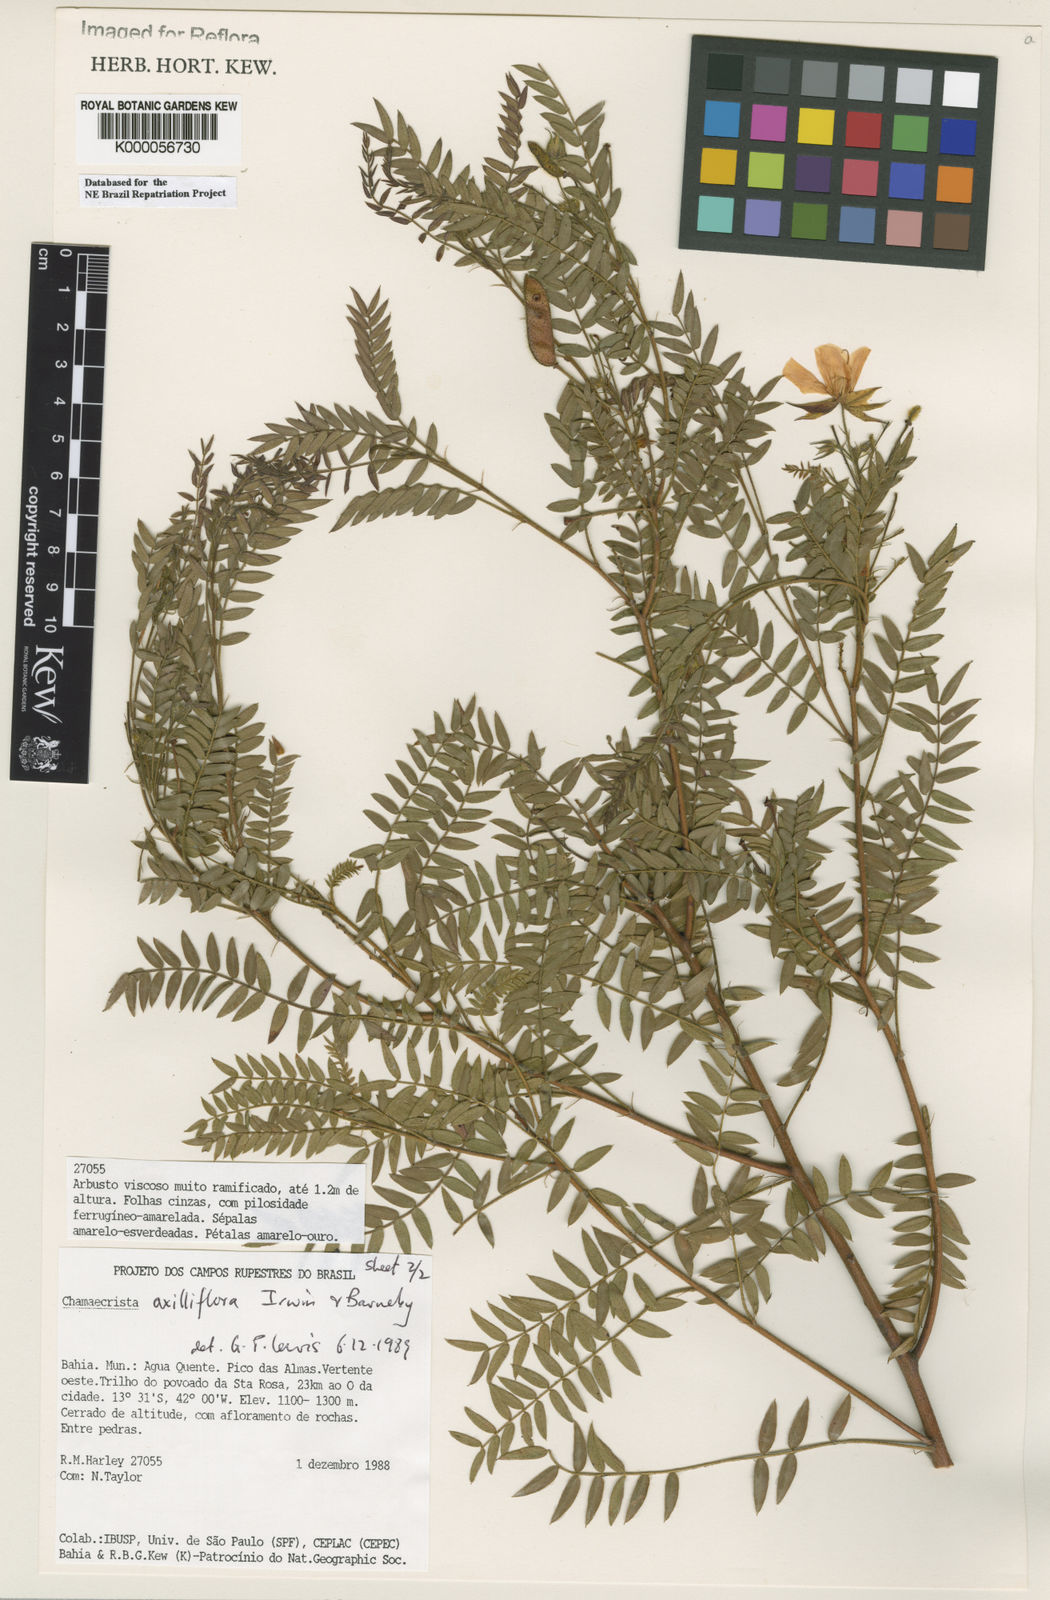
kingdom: Plantae
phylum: Tracheophyta
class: Magnoliopsida
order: Fabales
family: Fabaceae
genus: Chamaecrista
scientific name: Chamaecrista axilliflora
